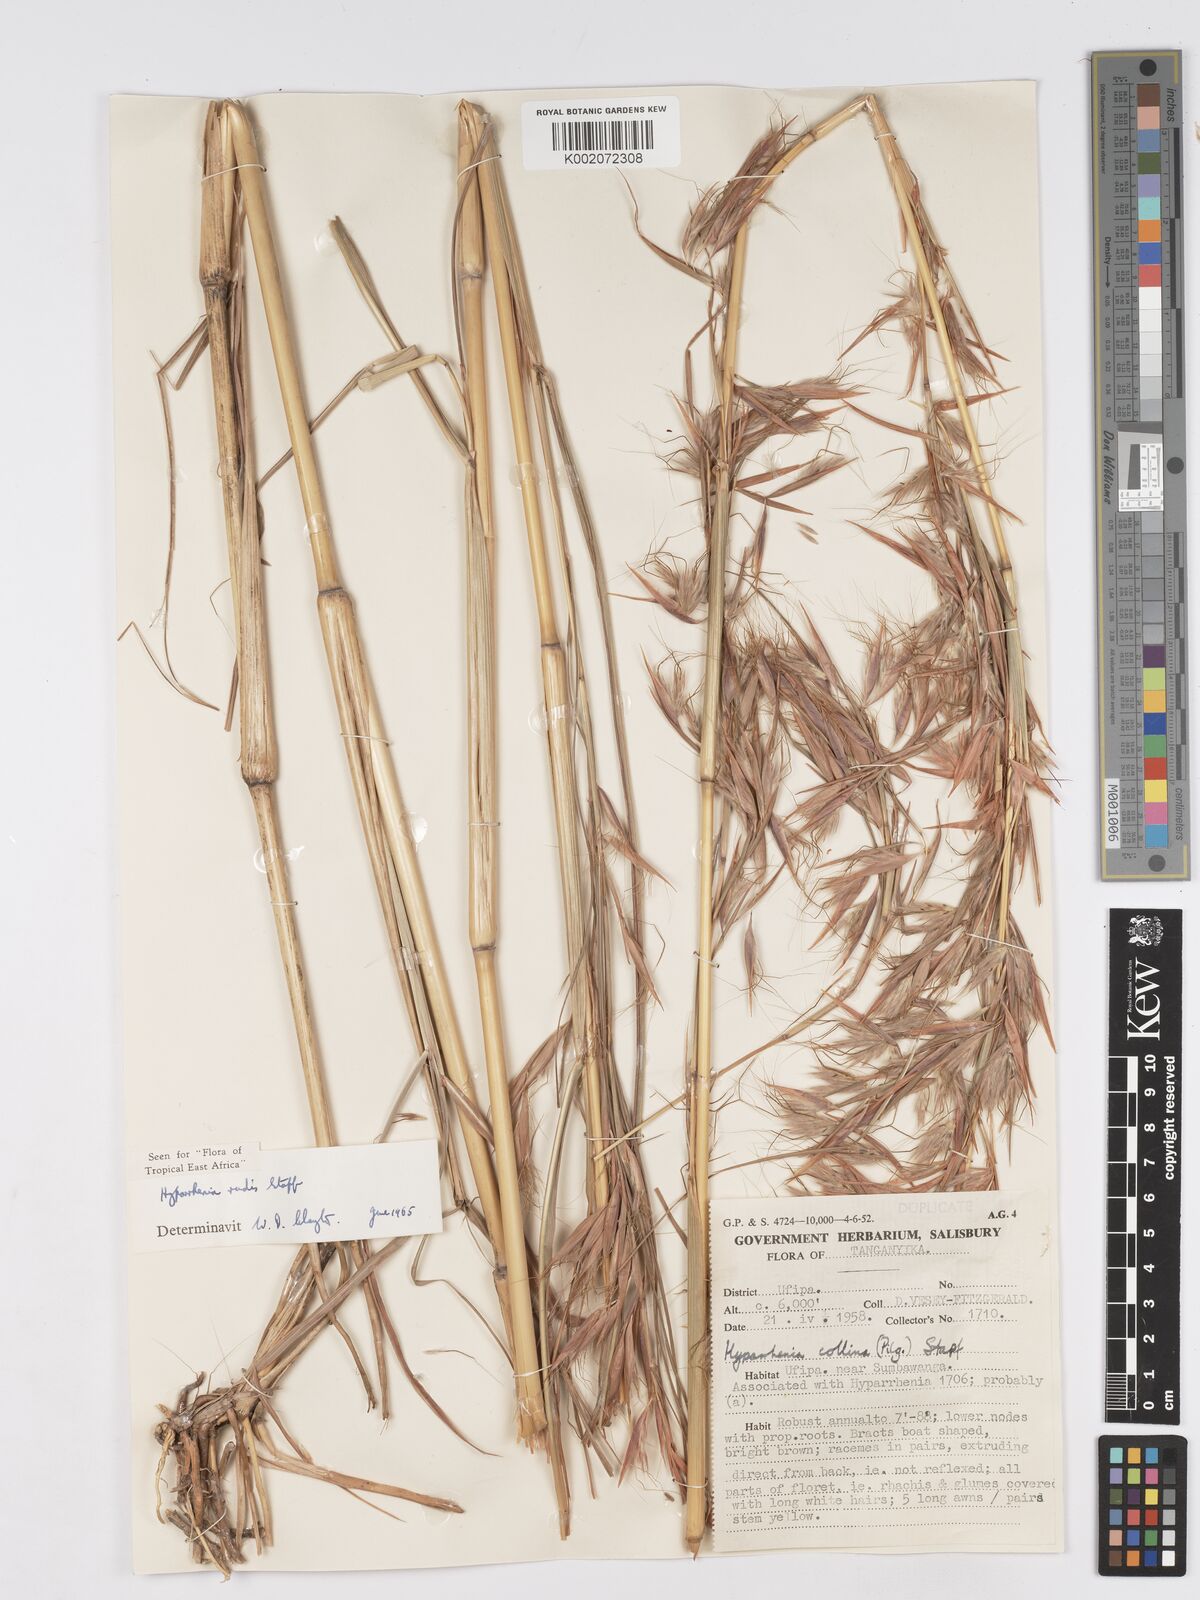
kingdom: Plantae
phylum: Tracheophyta
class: Liliopsida
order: Poales
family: Poaceae
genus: Hyparrhenia
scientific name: Hyparrhenia rudis
